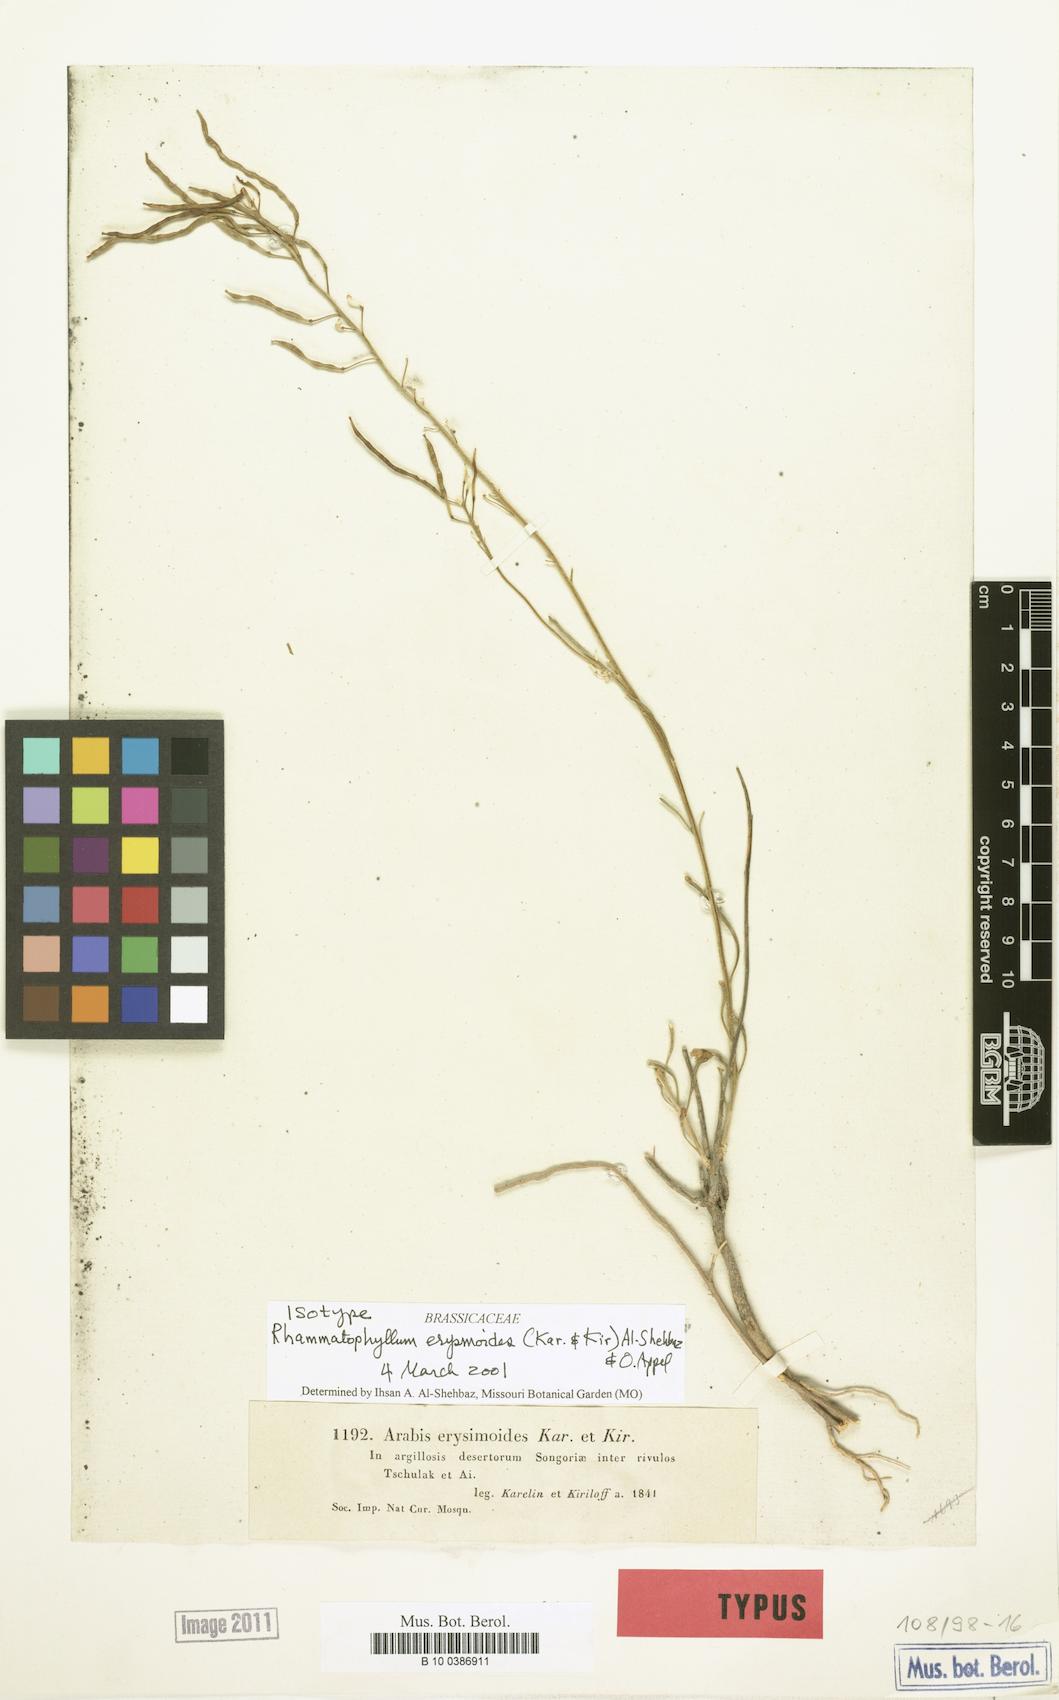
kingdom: Plantae
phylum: Tracheophyta
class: Magnoliopsida
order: Brassicales
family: Brassicaceae
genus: Rhammatophyllum
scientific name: Rhammatophyllum erysimoides
